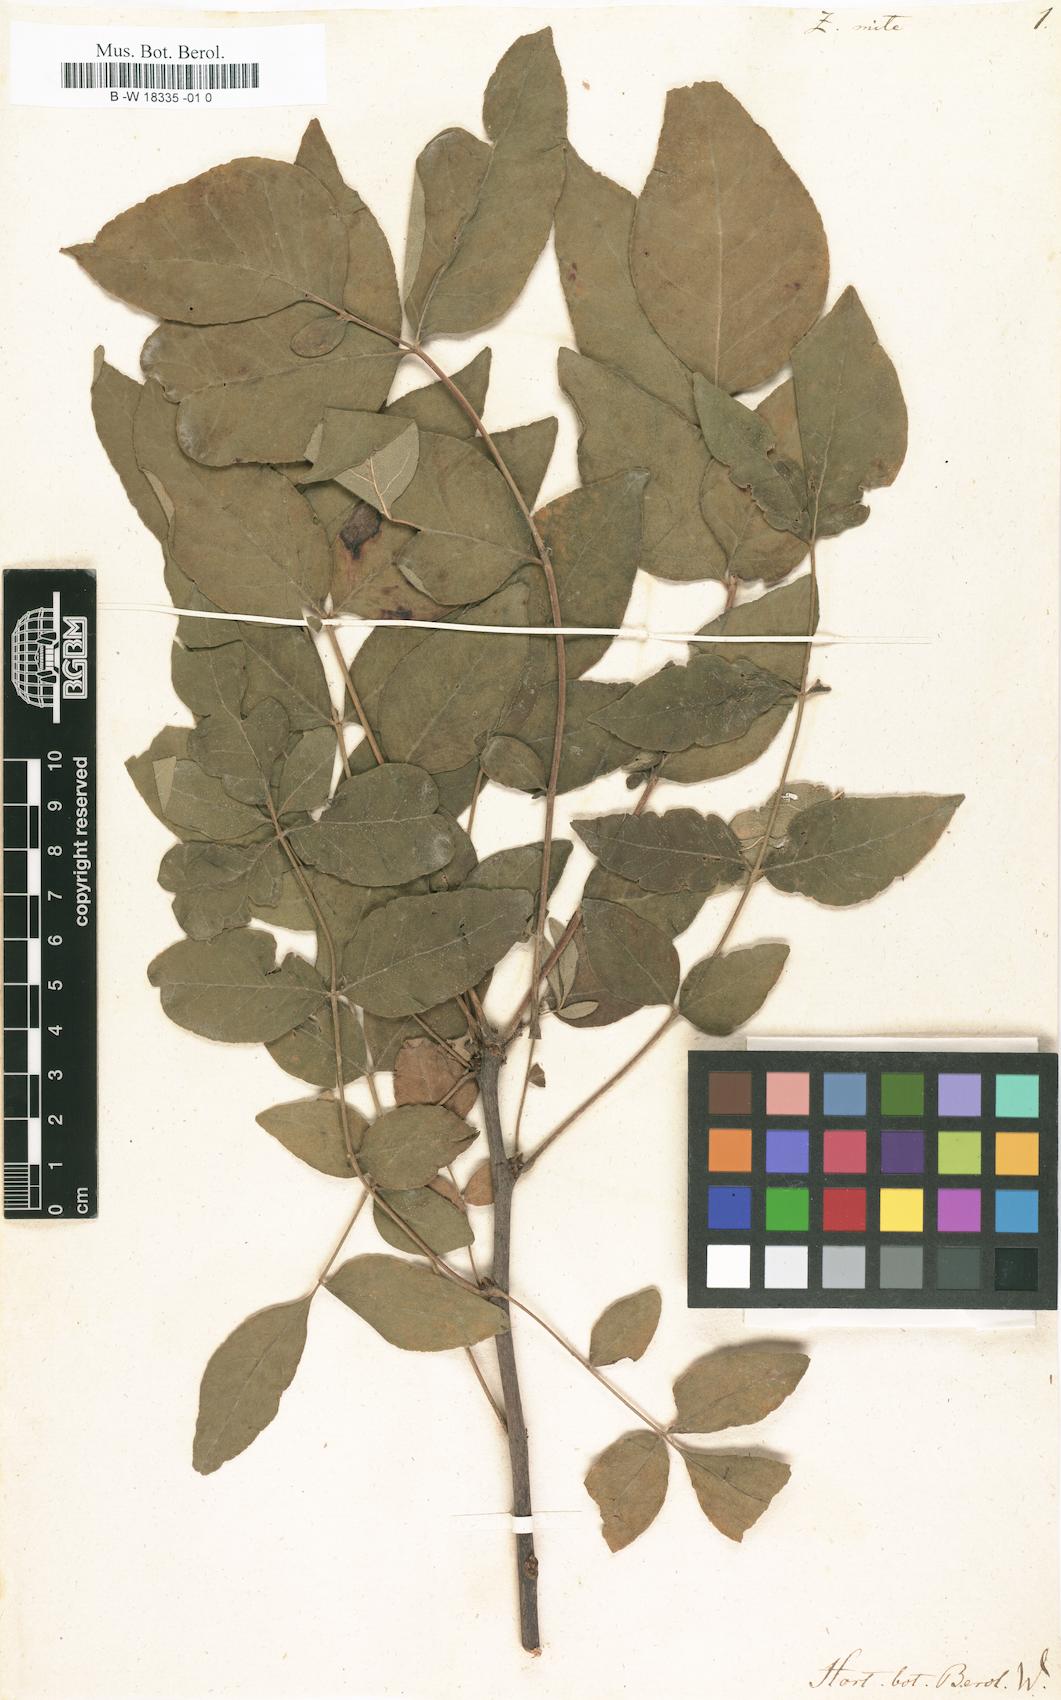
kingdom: Plantae
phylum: Tracheophyta
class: Magnoliopsida
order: Sapindales
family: Rutaceae
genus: Zanthoxylum
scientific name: Zanthoxylum americanum
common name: Northern prickly-ash
